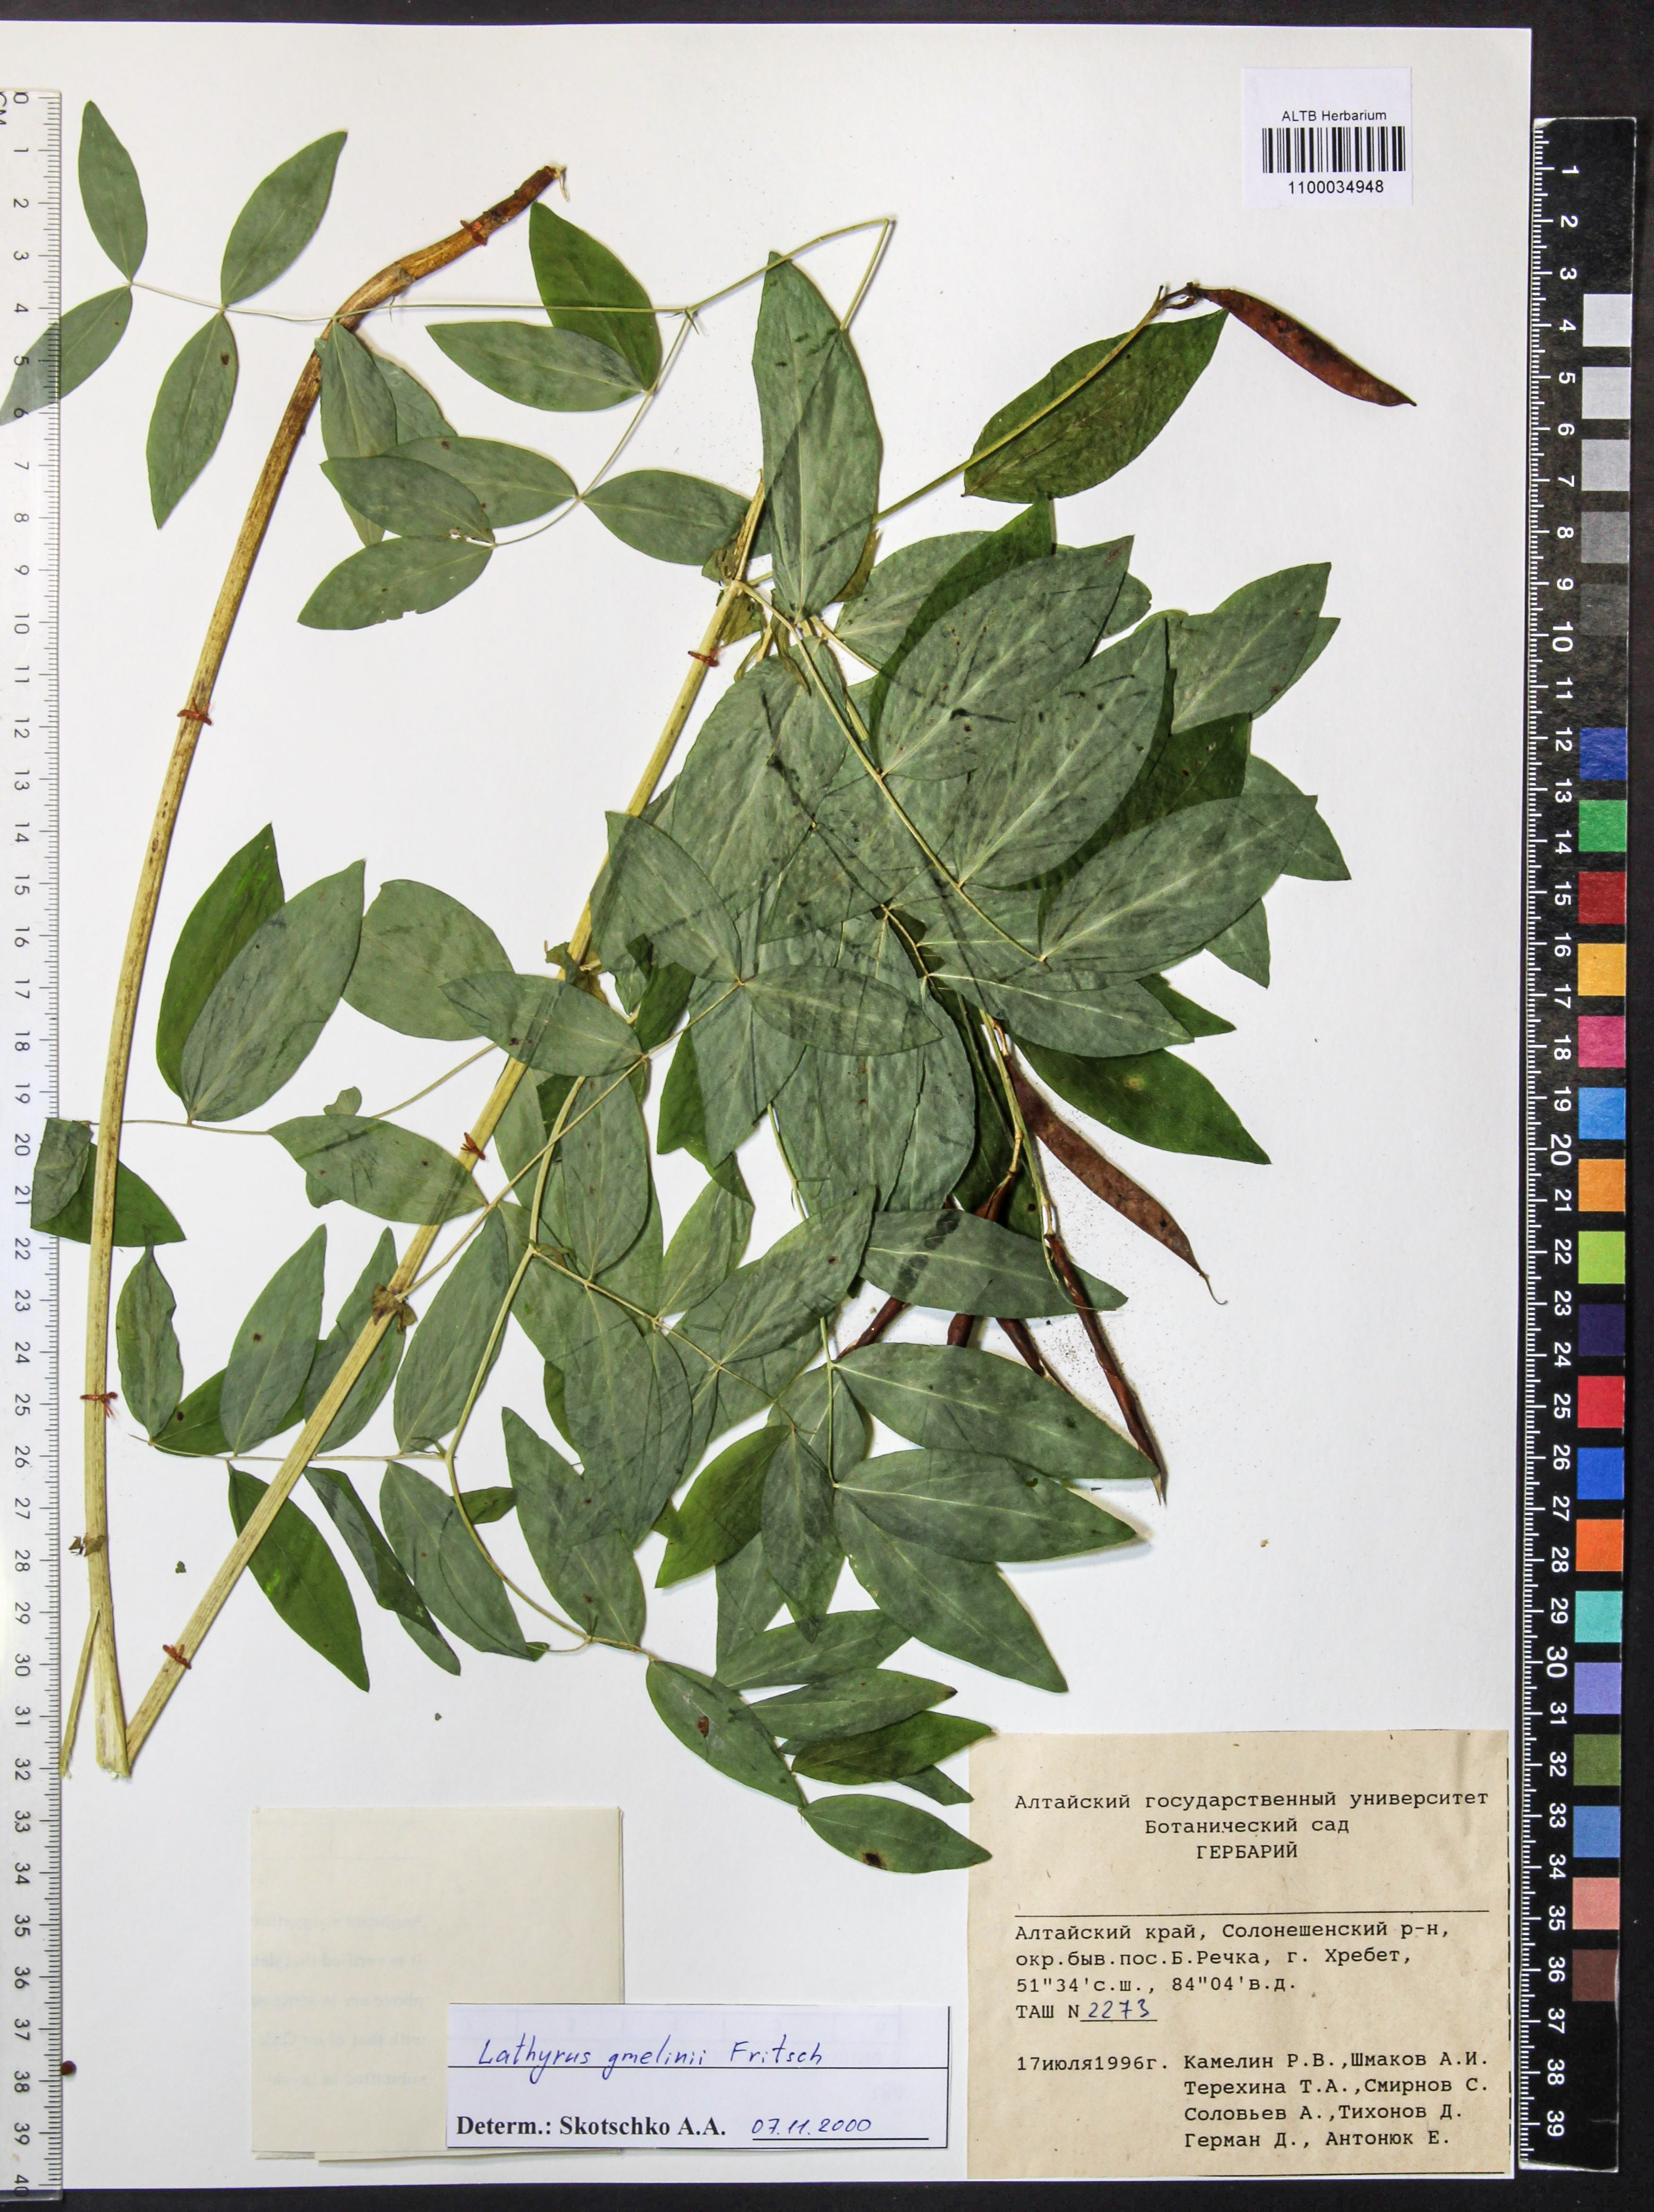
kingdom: Plantae
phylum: Tracheophyta
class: Magnoliopsida
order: Fabales
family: Fabaceae
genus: Lathyrus
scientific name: Lathyrus gmelinii
